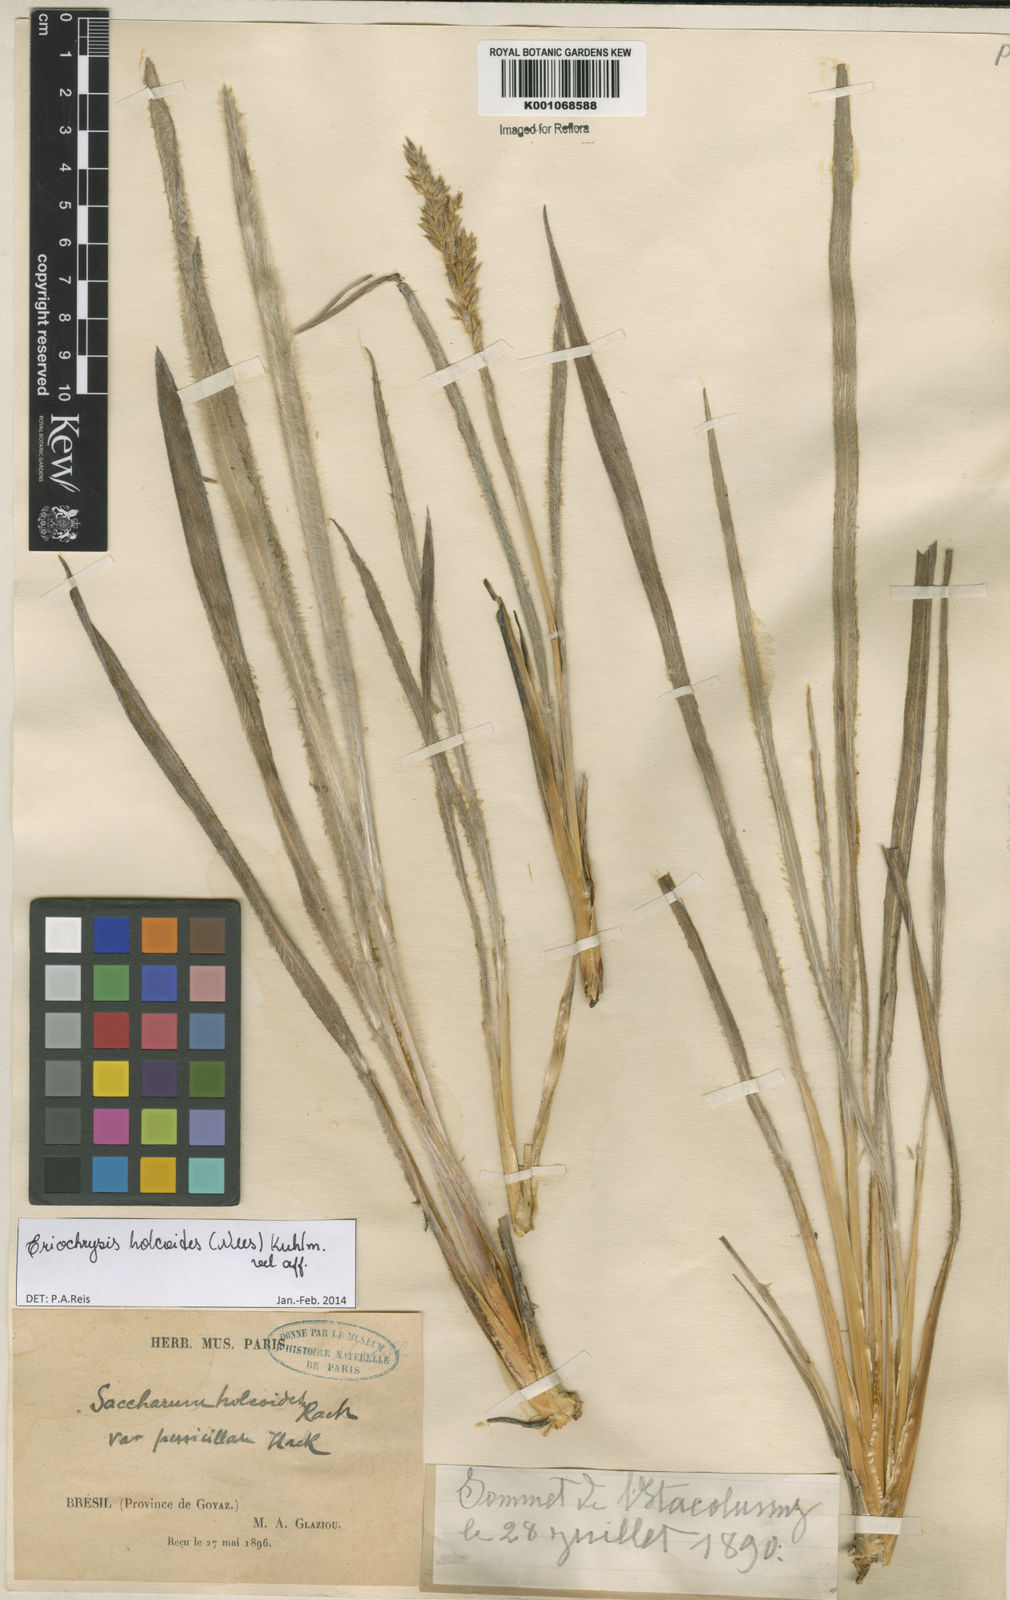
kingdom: Plantae
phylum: Tracheophyta
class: Liliopsida
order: Poales
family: Poaceae
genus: Eriochrysis
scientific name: Eriochrysis holcoides
